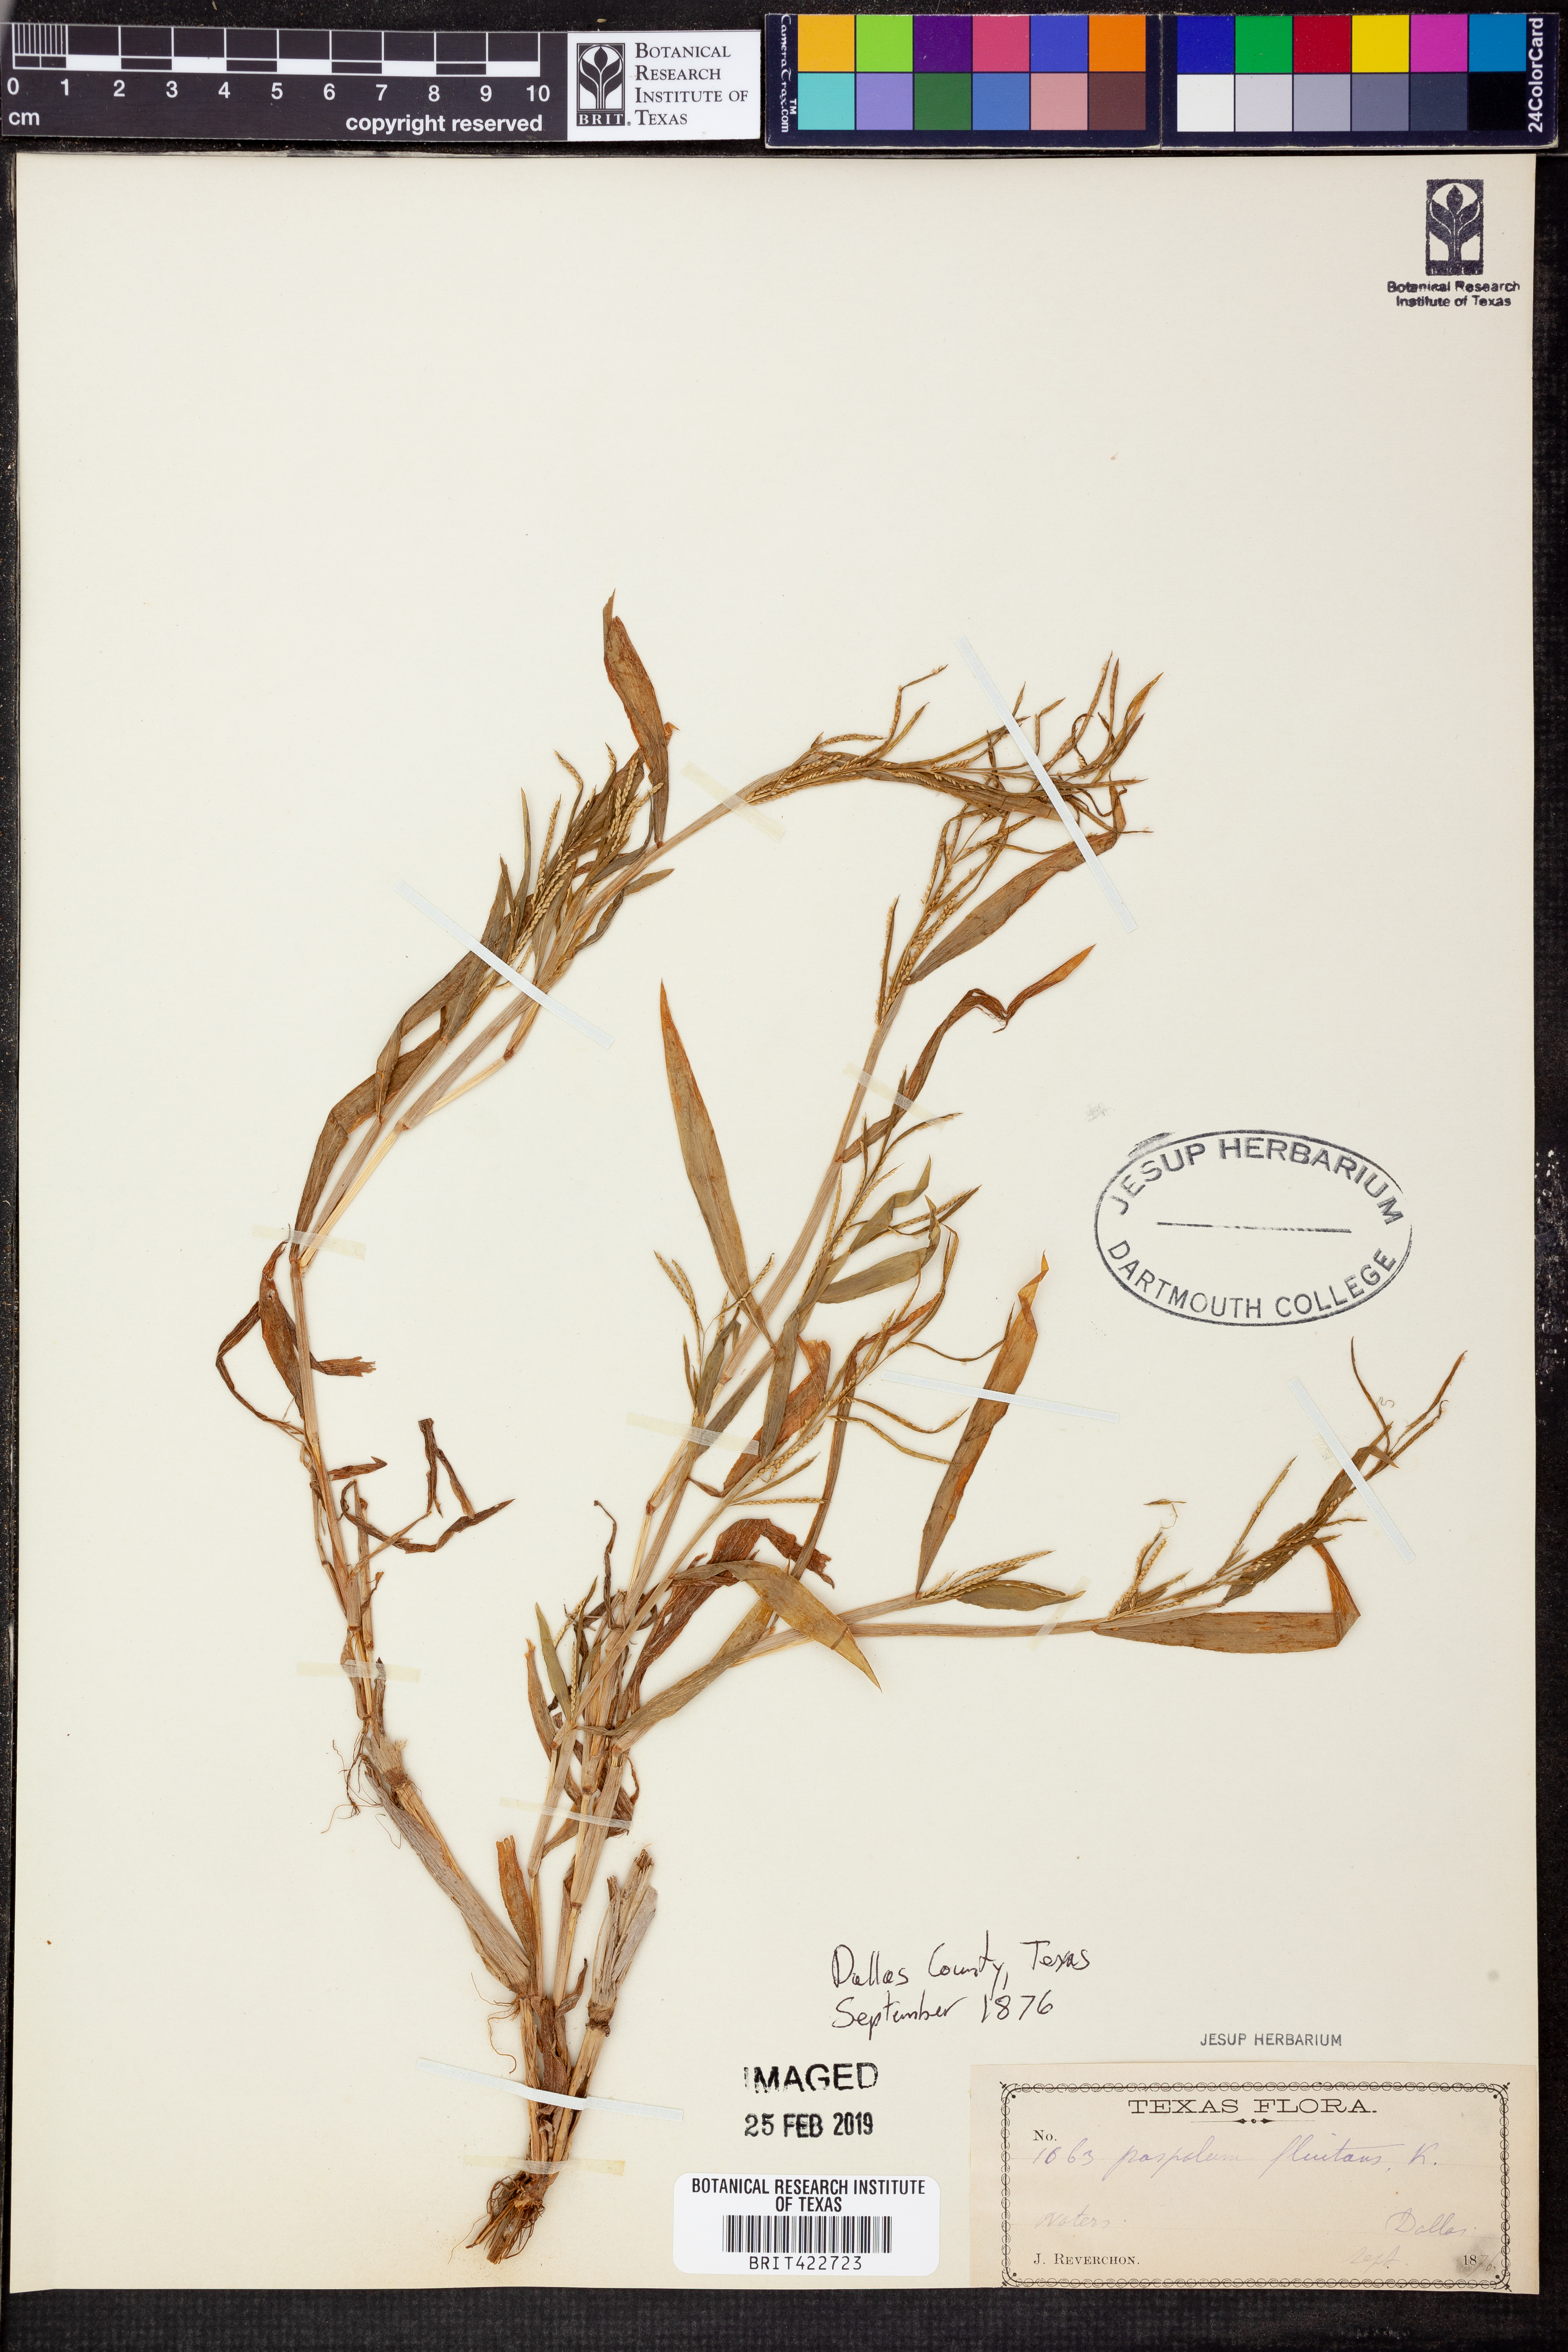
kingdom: Plantae
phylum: Tracheophyta
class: Liliopsida
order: Poales
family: Poaceae
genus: Paspalum
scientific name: Paspalum repens
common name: Water paspalum
